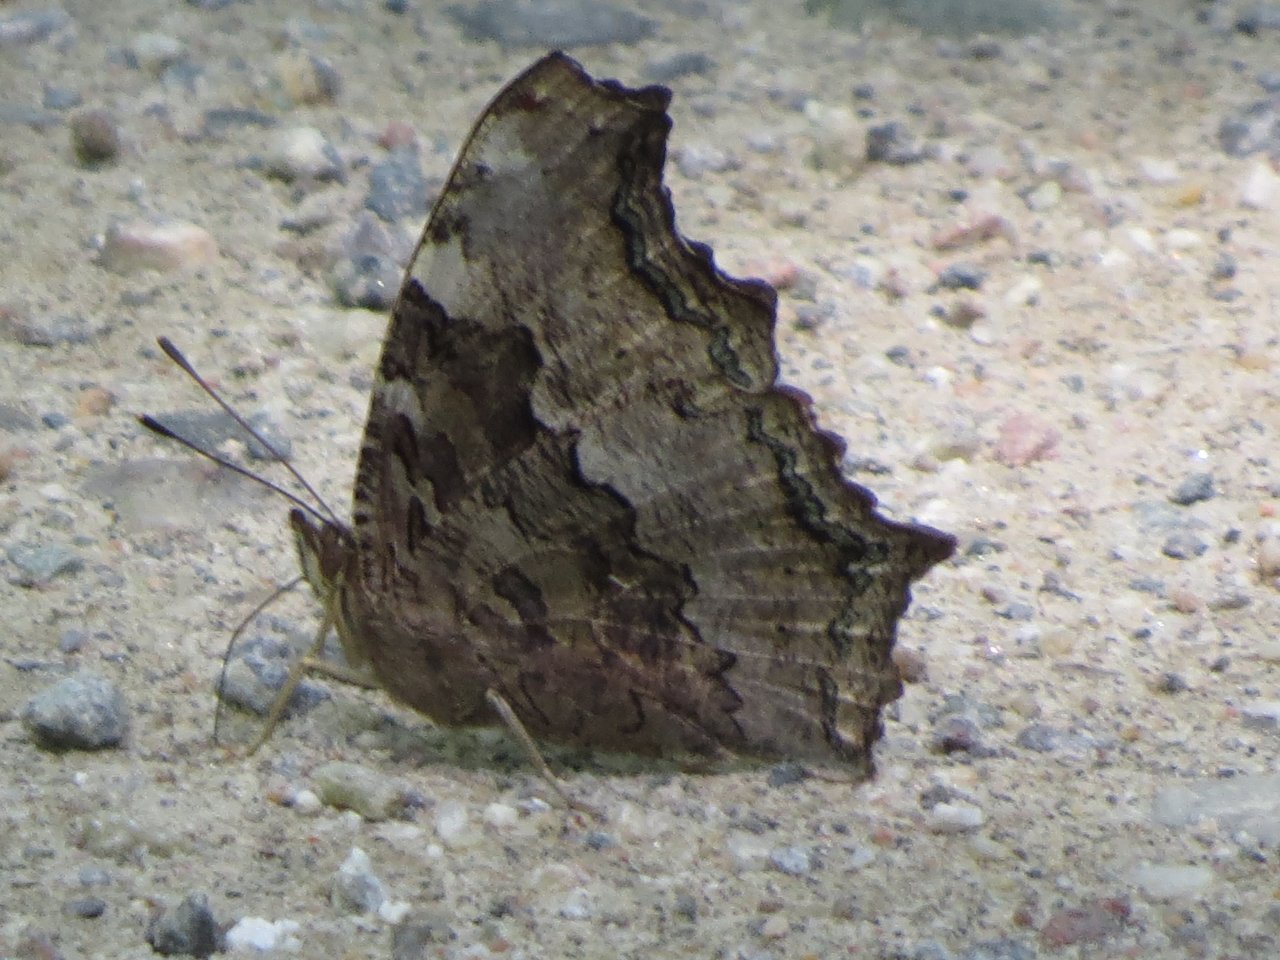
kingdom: Animalia
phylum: Arthropoda
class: Insecta
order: Lepidoptera
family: Nymphalidae
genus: Polygonia
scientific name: Polygonia vaualbum
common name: Compton Tortoiseshell
